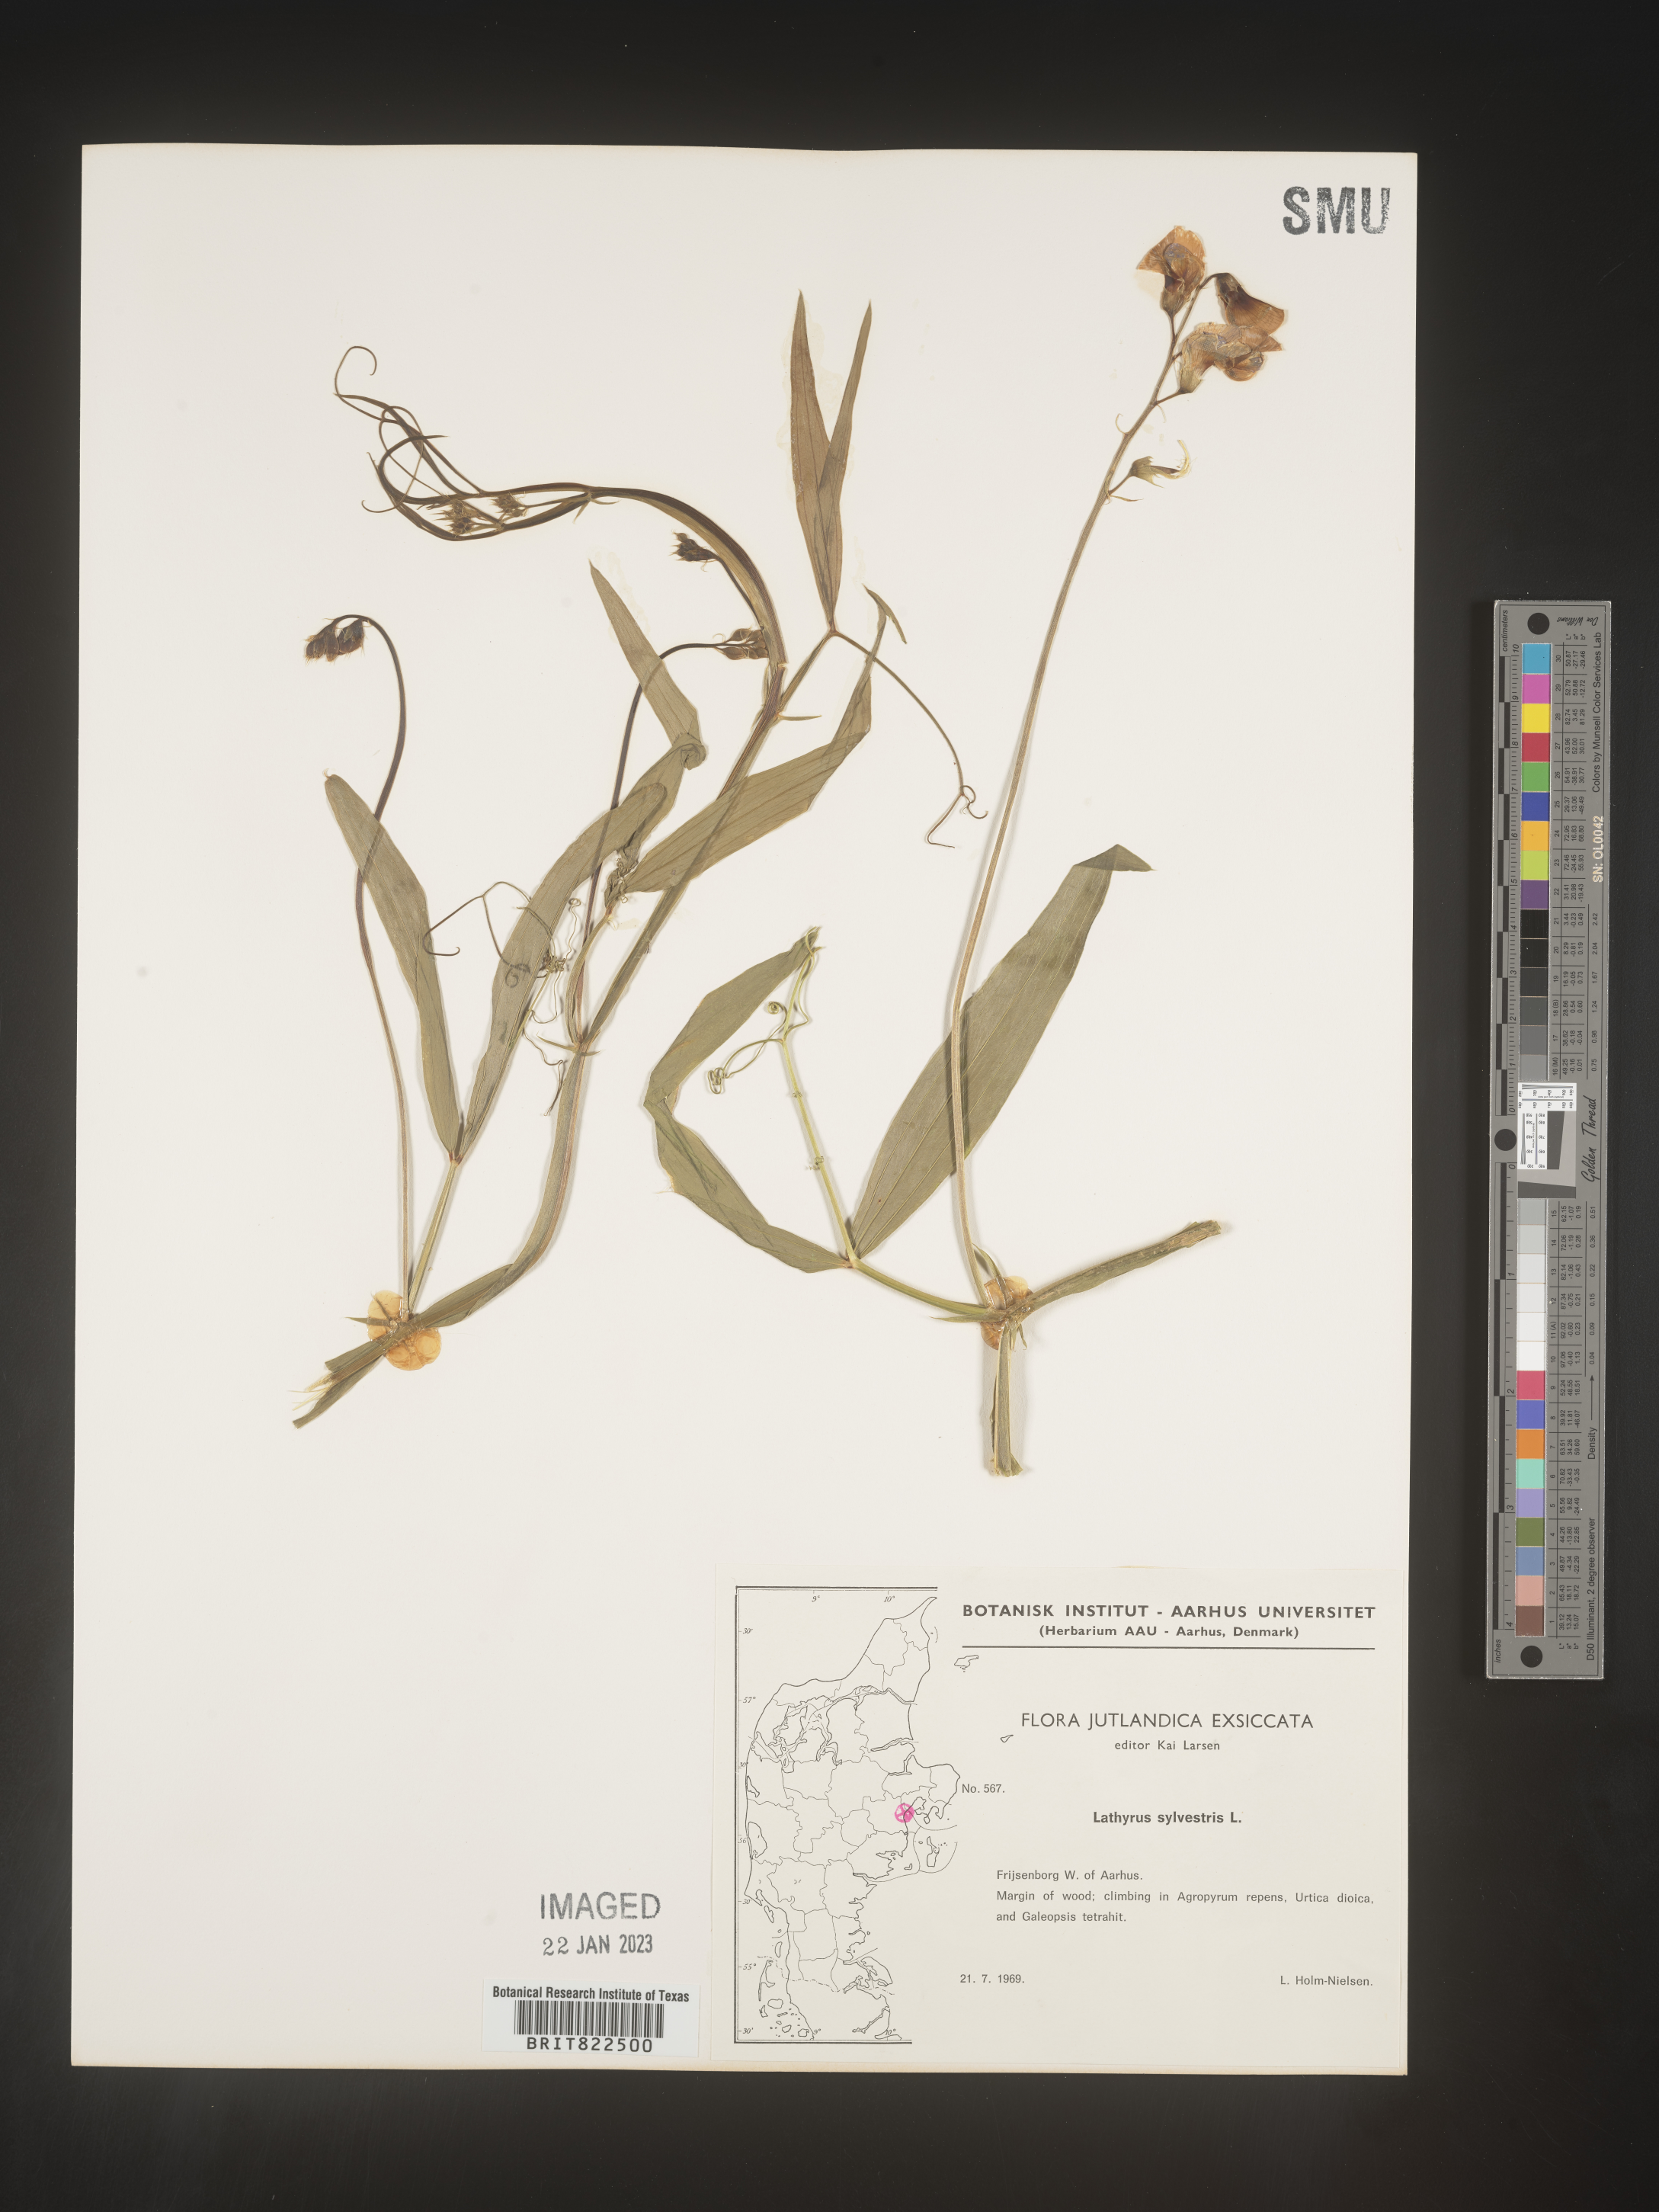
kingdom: Plantae
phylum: Tracheophyta
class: Magnoliopsida
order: Fabales
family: Fabaceae
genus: Lathyrus
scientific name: Lathyrus
